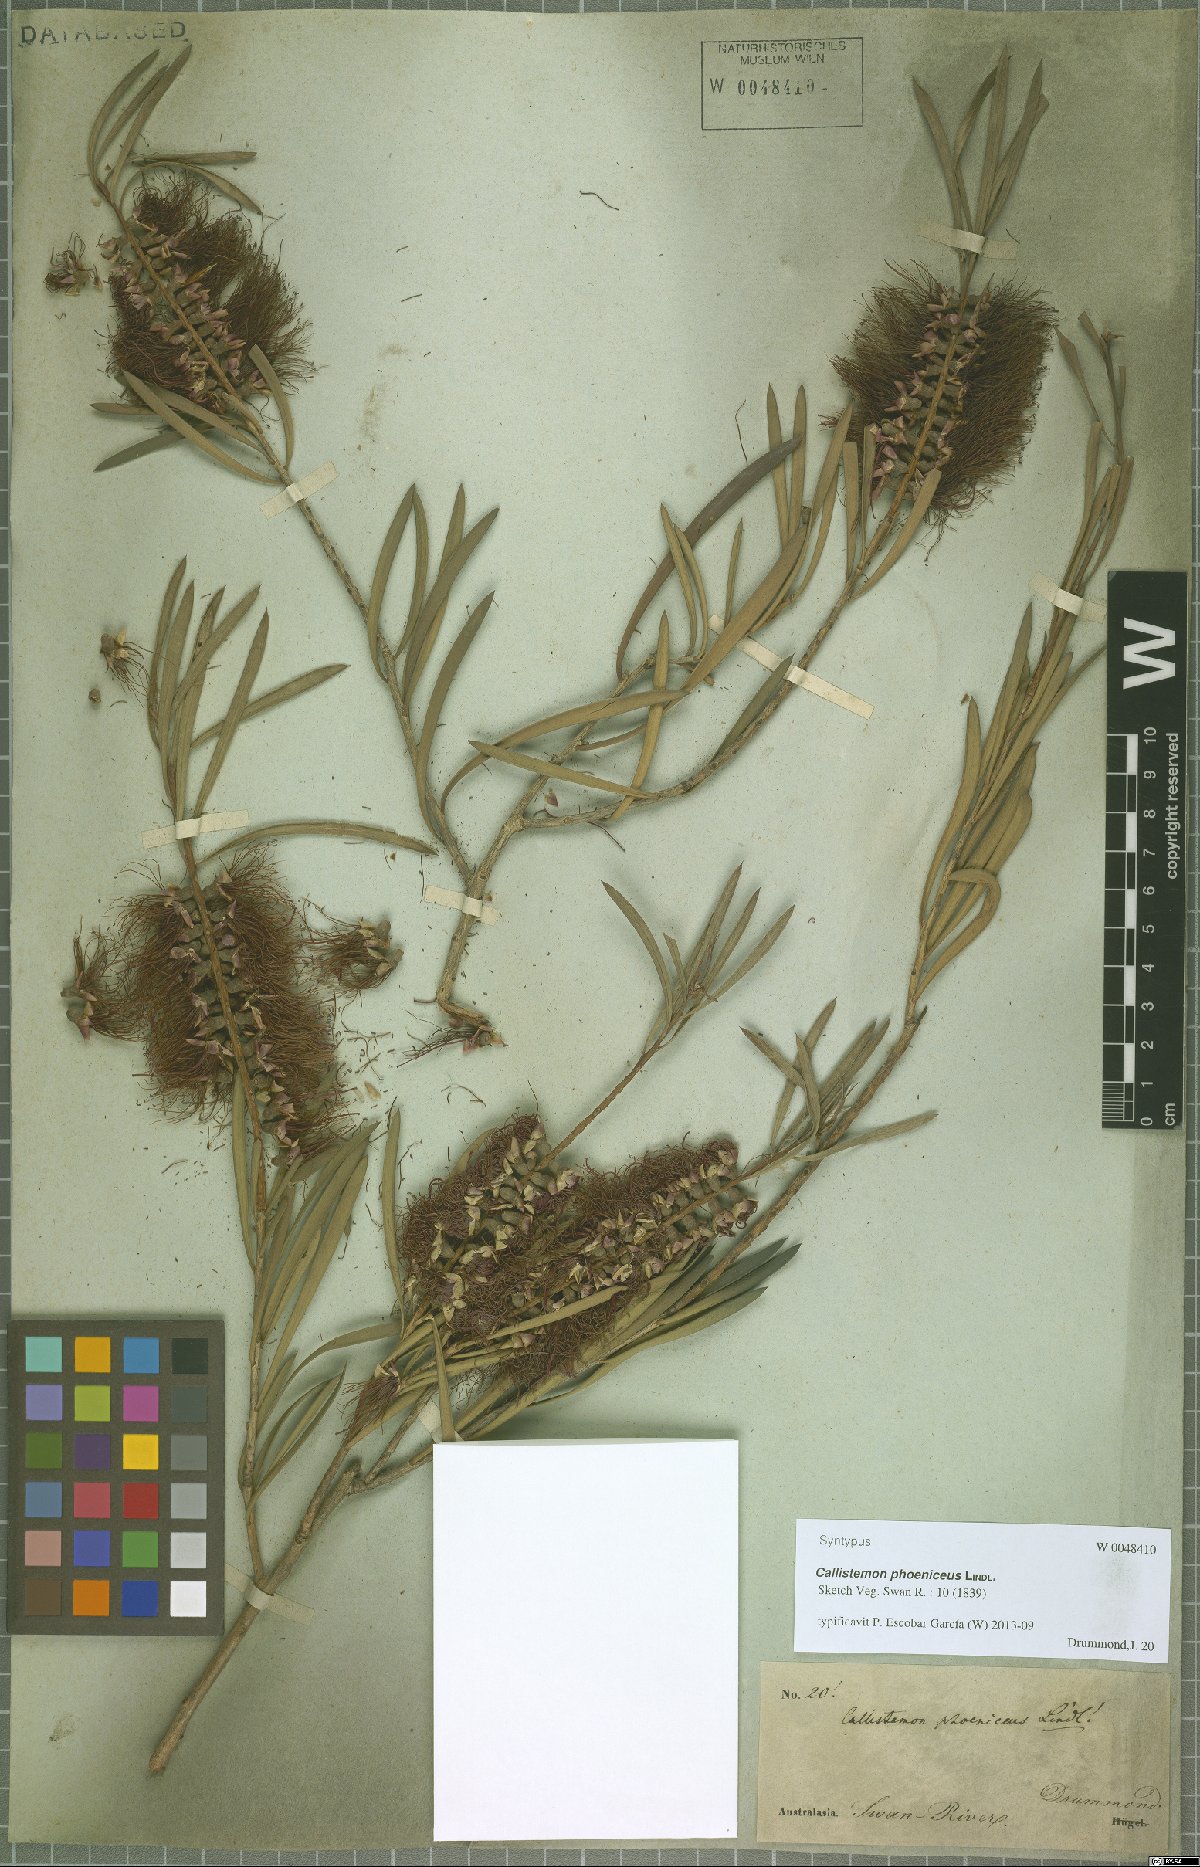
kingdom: Plantae
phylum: Tracheophyta
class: Magnoliopsida
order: Myrtales
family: Myrtaceae
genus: Callistemon
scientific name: Callistemon phoeniceus
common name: Lesser bottlebrush
